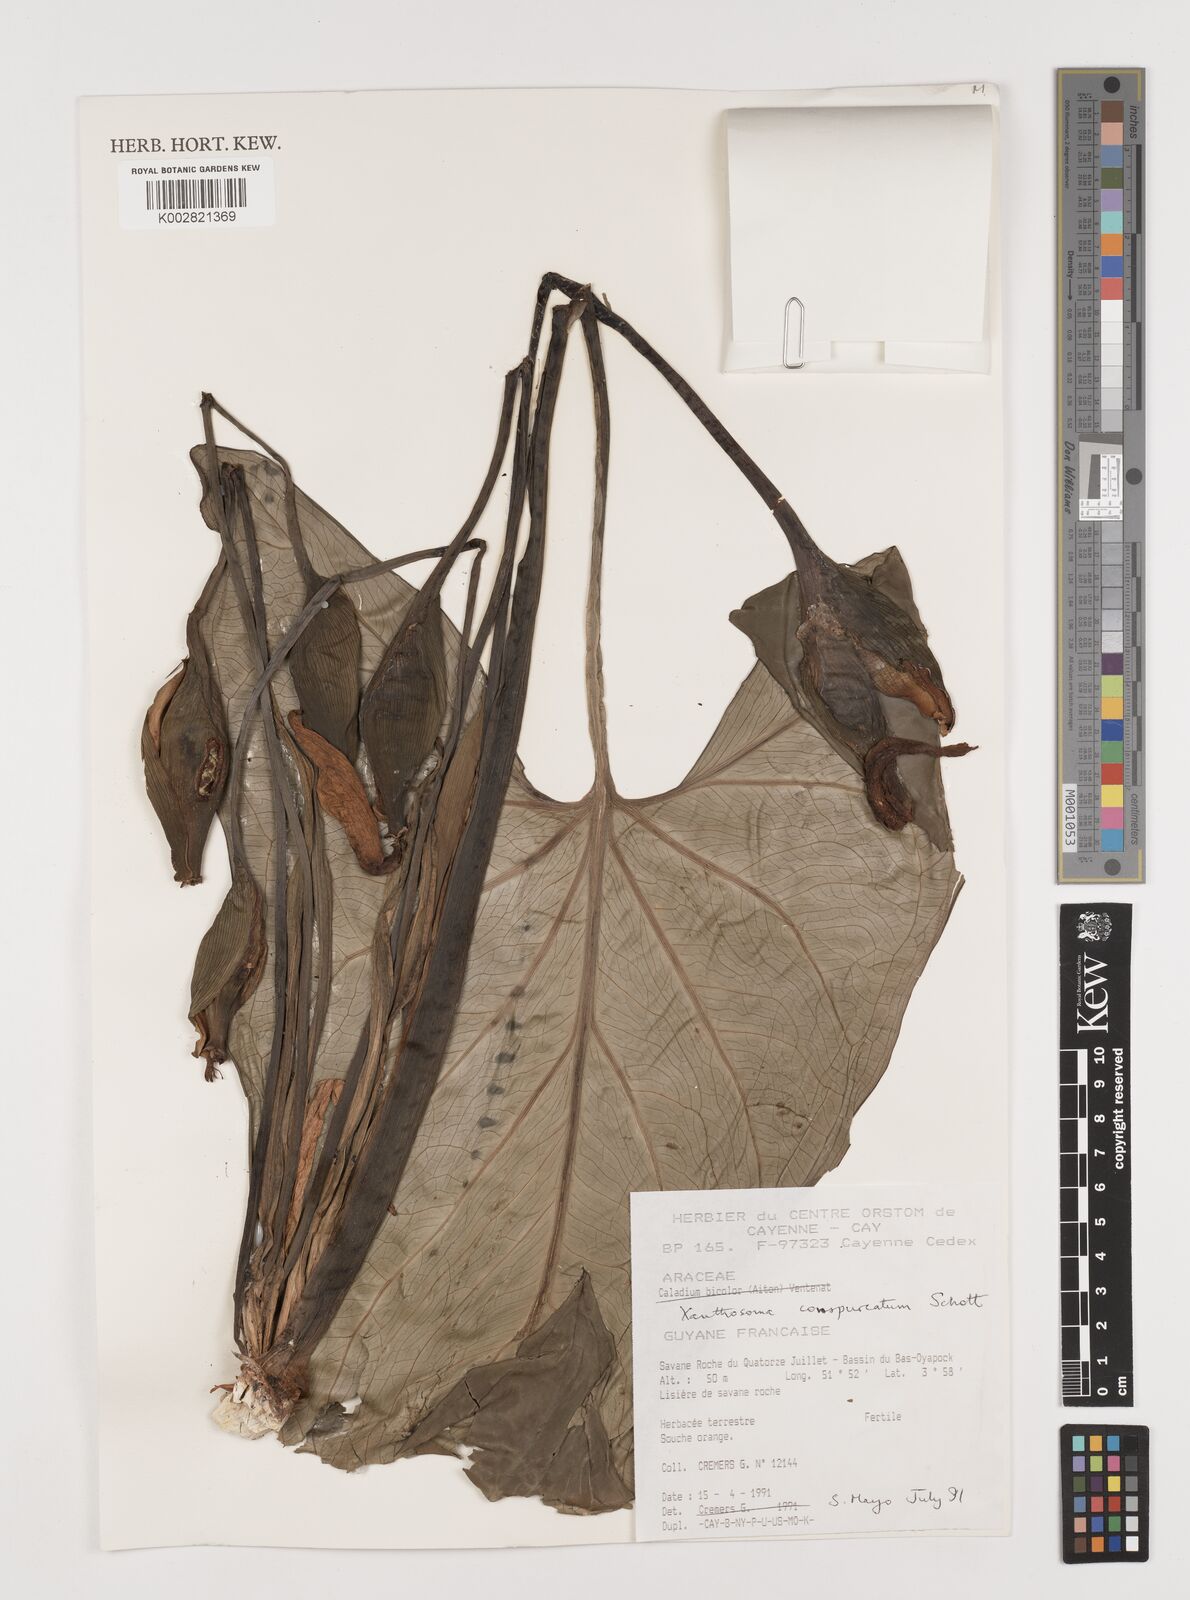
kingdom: Plantae
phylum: Tracheophyta
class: Liliopsida
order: Alismatales
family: Araceae
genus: Xanthosoma
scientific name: Xanthosoma conspurcatum
